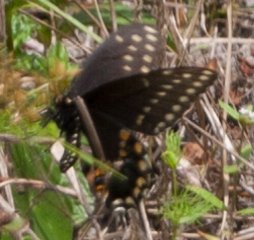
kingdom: Animalia
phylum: Arthropoda
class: Insecta
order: Lepidoptera
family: Papilionidae
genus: Papilio
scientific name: Papilio polyxenes
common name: Black Swallowtail
